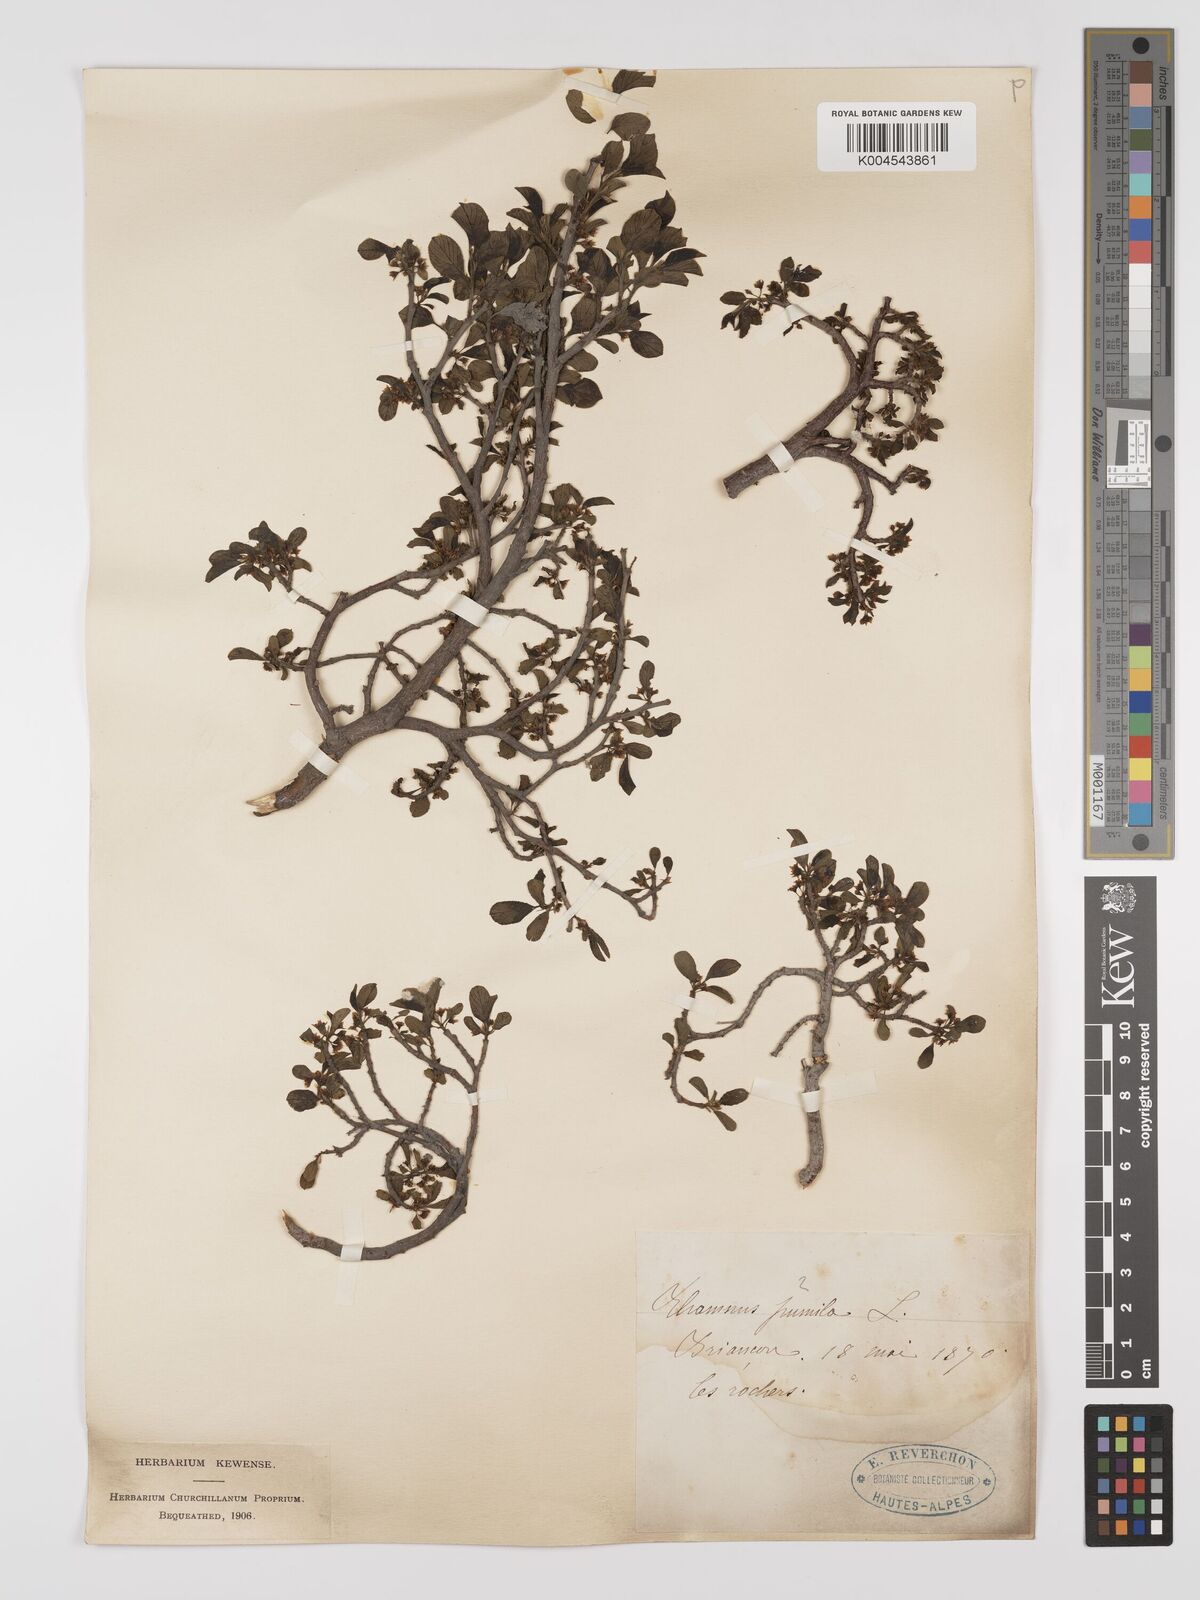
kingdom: Plantae
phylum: Tracheophyta
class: Magnoliopsida
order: Rosales
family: Rhamnaceae
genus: Rhamnus
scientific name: Rhamnus
